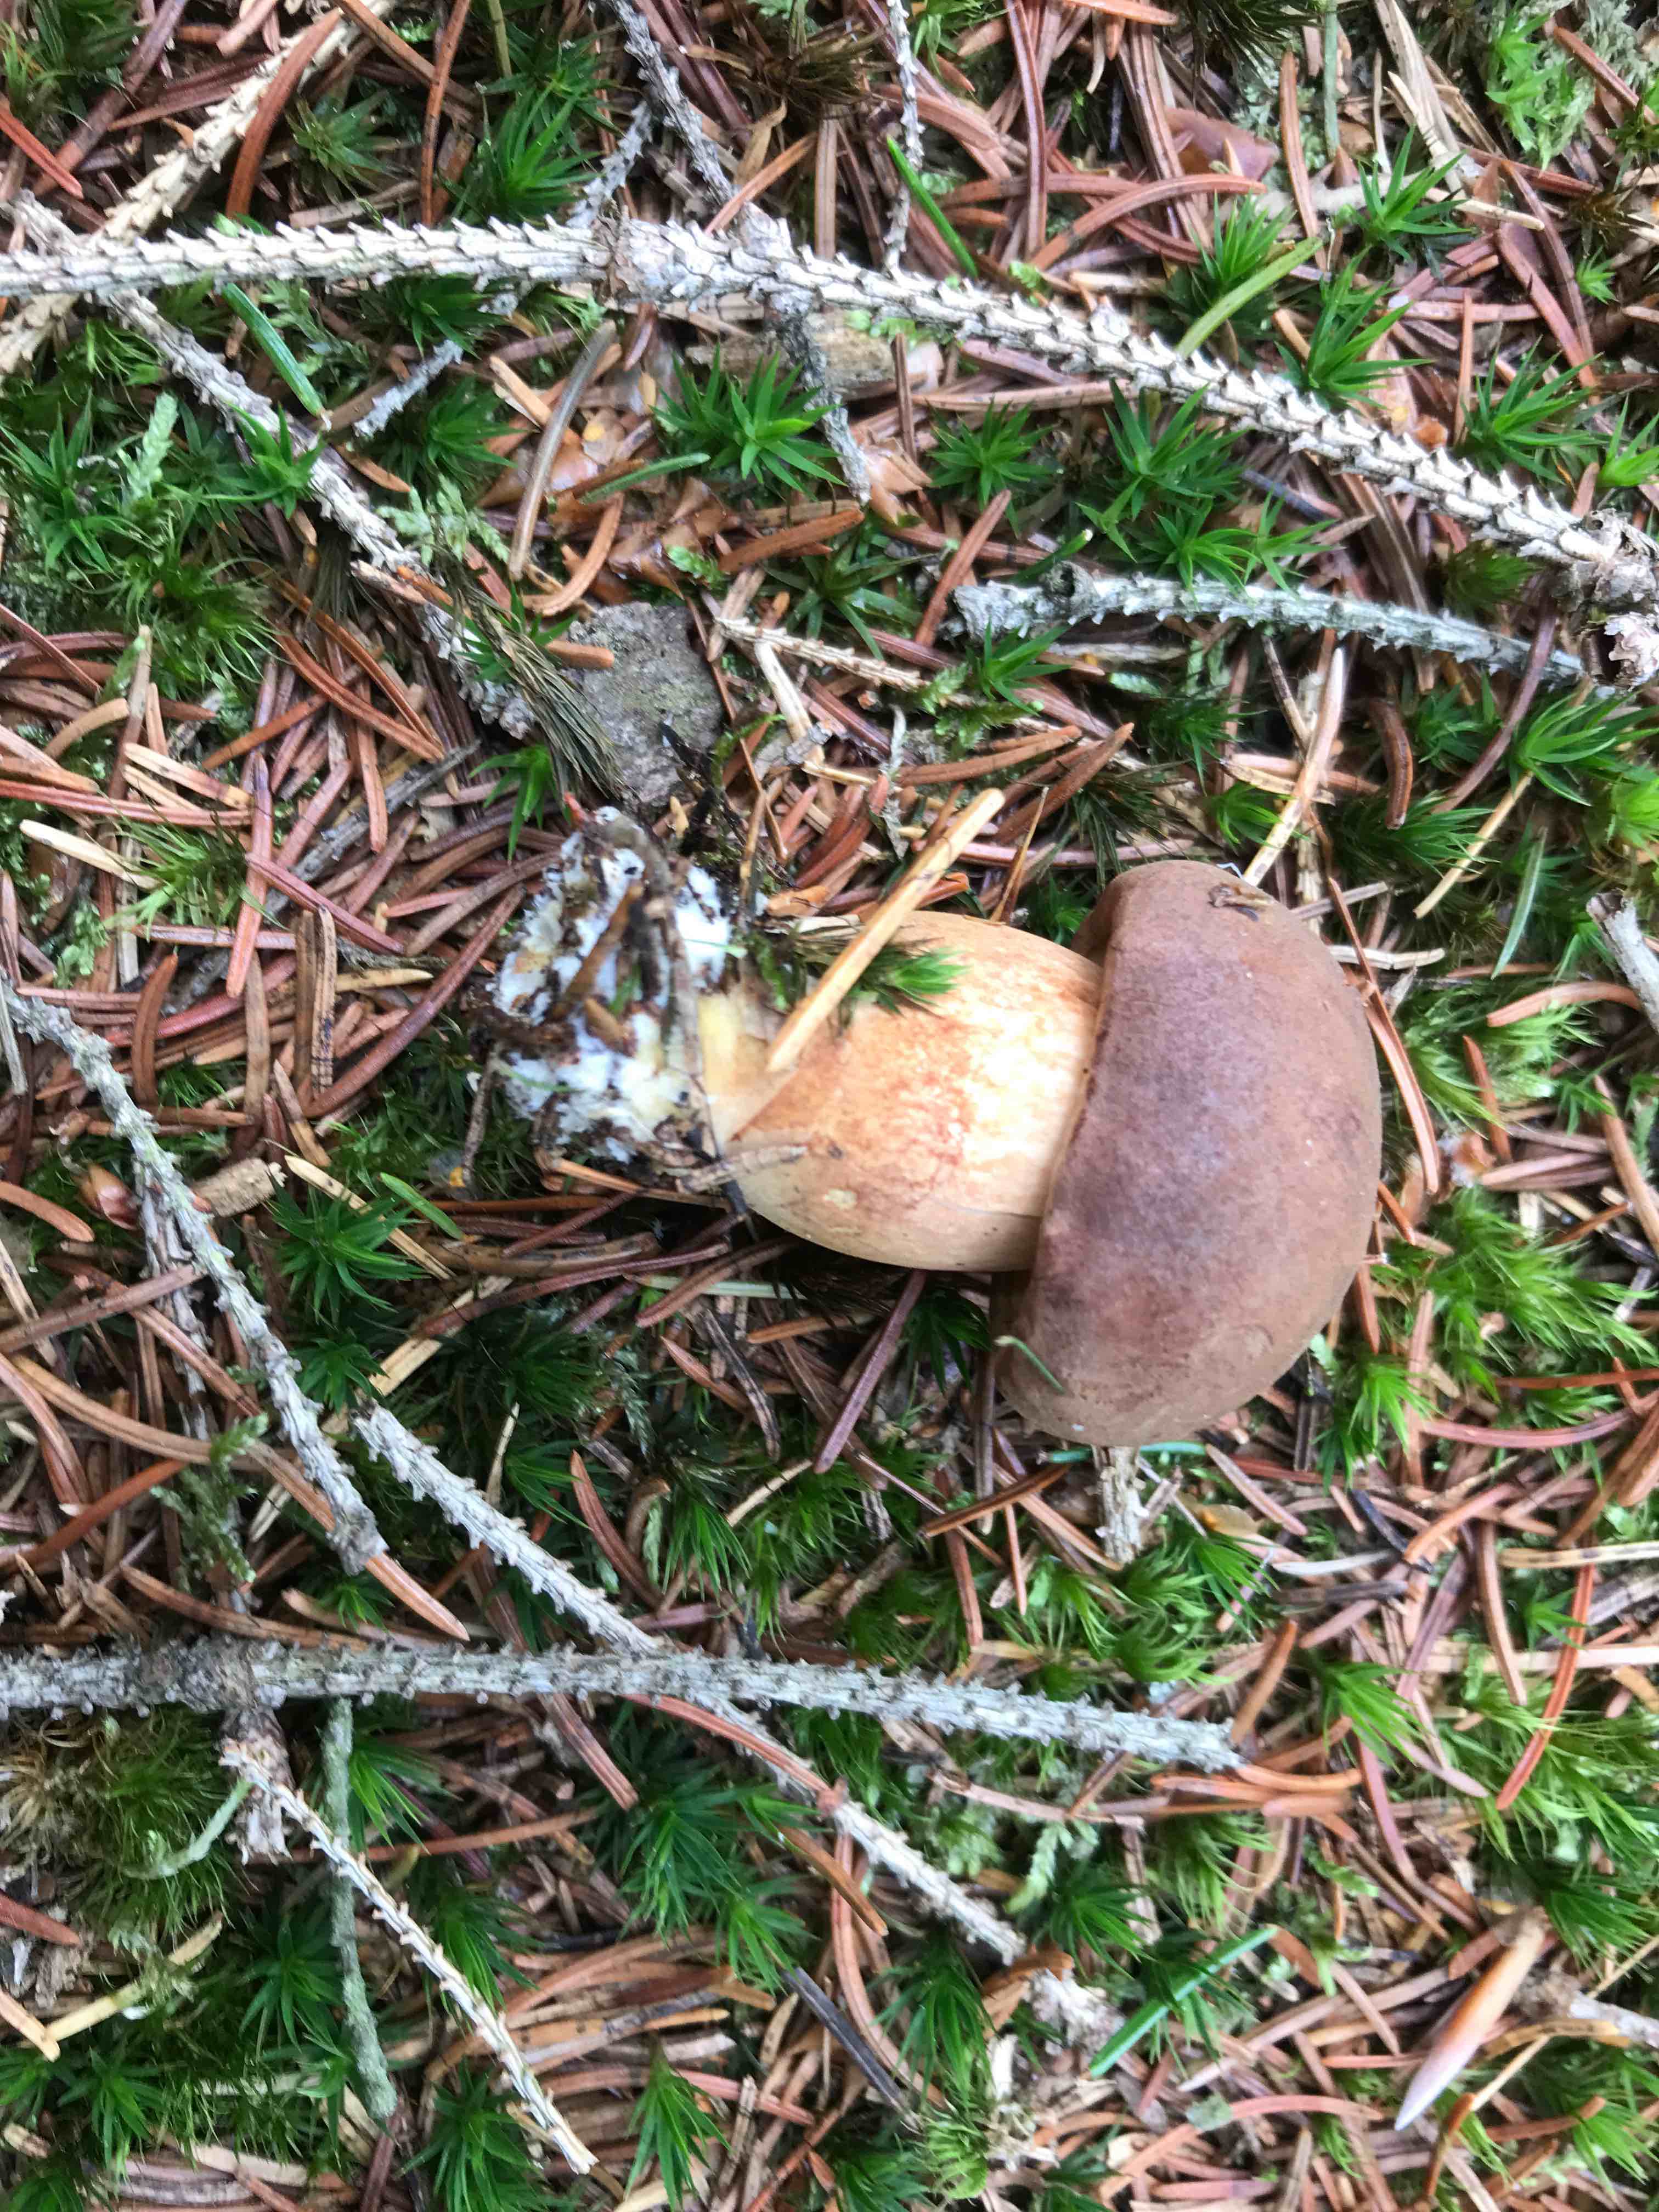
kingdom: Fungi
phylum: Basidiomycota
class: Agaricomycetes
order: Boletales
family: Boletaceae
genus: Imleria
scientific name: Imleria badia
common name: brunstokket rørhat
